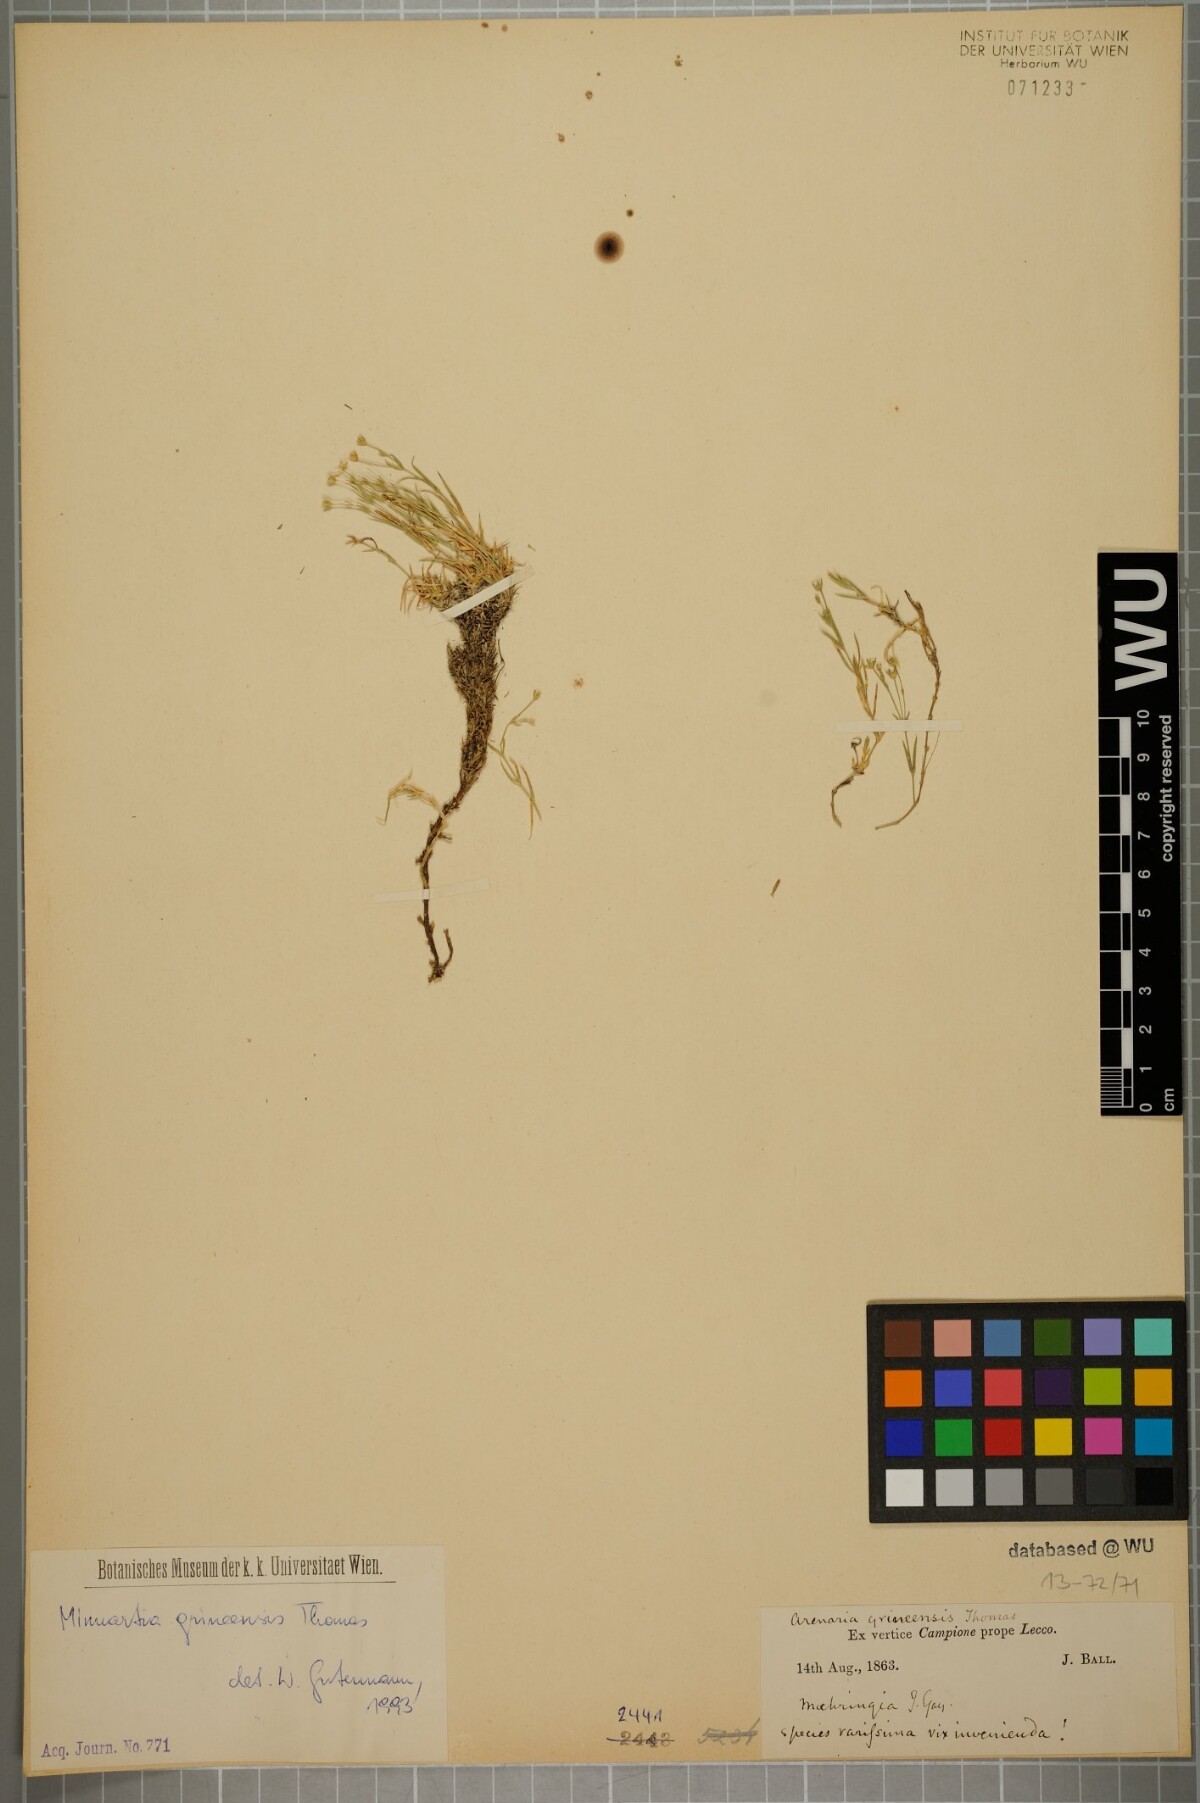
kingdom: Plantae
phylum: Tracheophyta
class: Magnoliopsida
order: Caryophyllales
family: Caryophyllaceae
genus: Facchinia
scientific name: Facchinia grignensis
